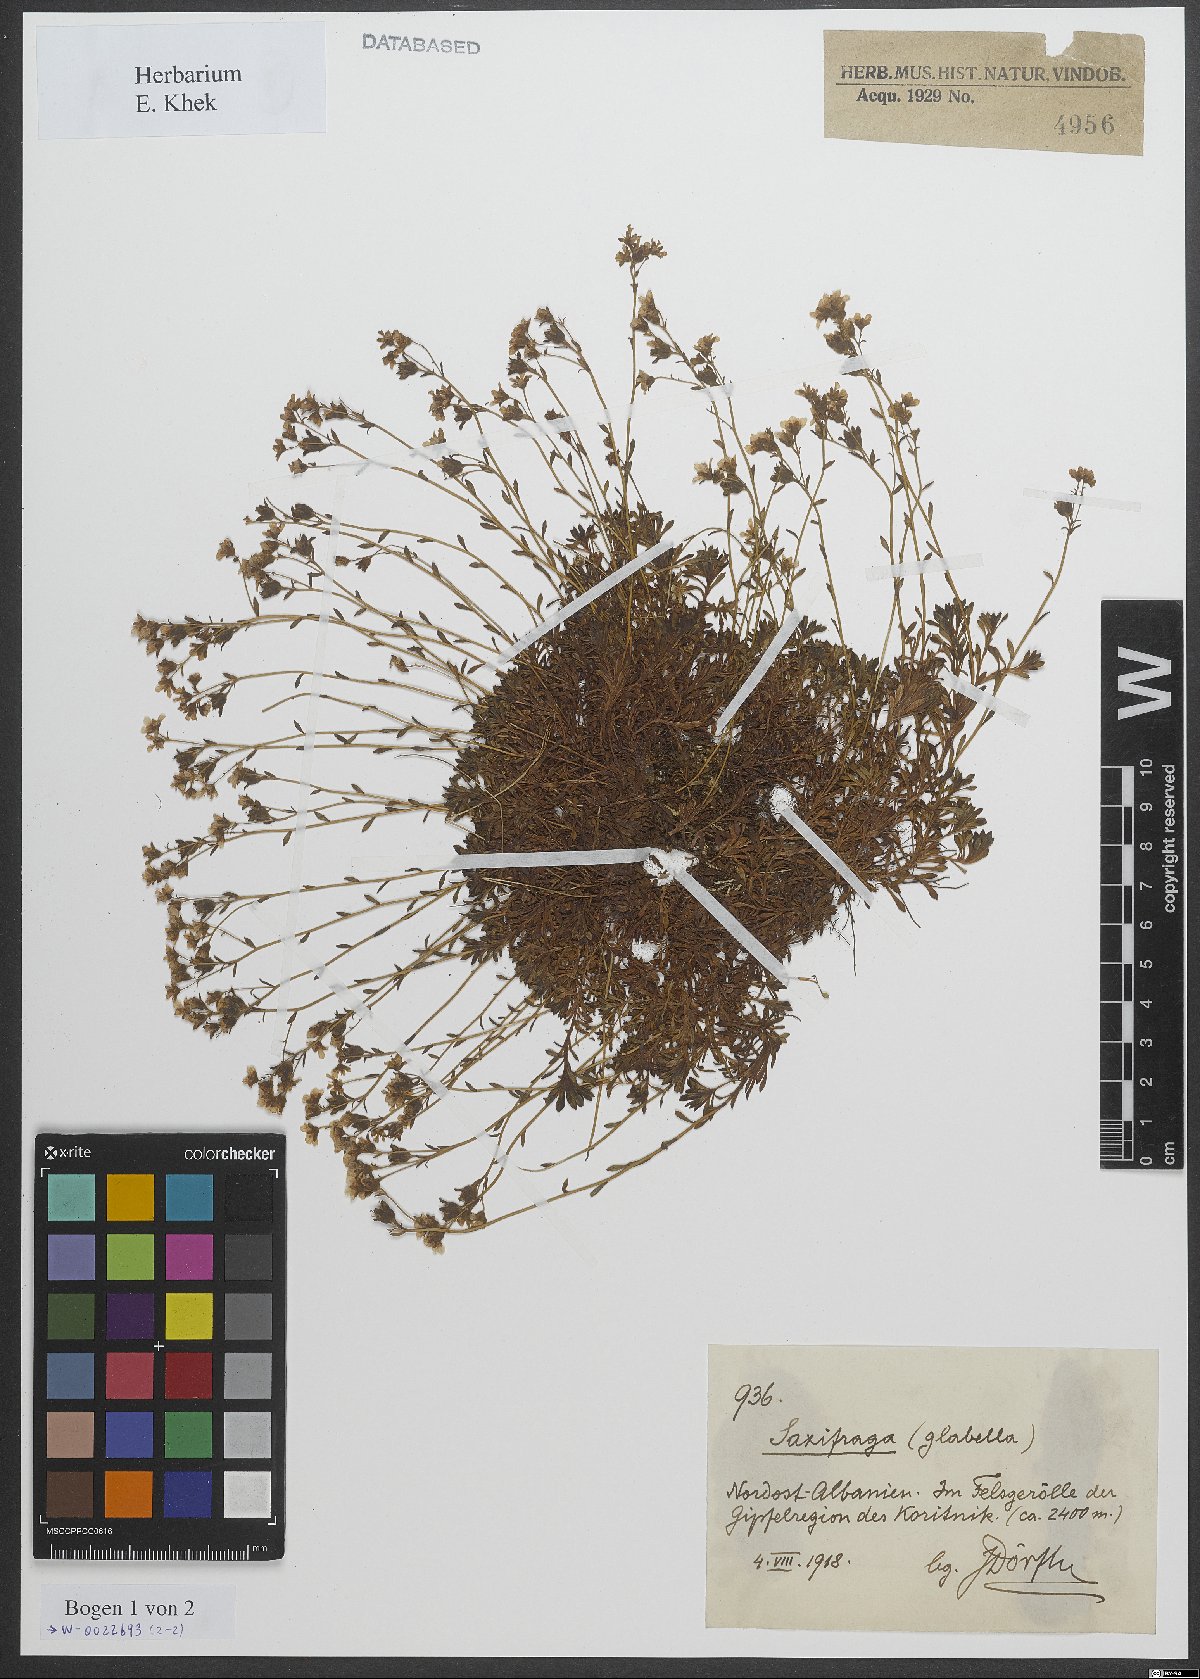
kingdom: Plantae
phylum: Tracheophyta
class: Magnoliopsida
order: Saxifragales
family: Saxifragaceae
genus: Saxifraga
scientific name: Saxifraga glabella
